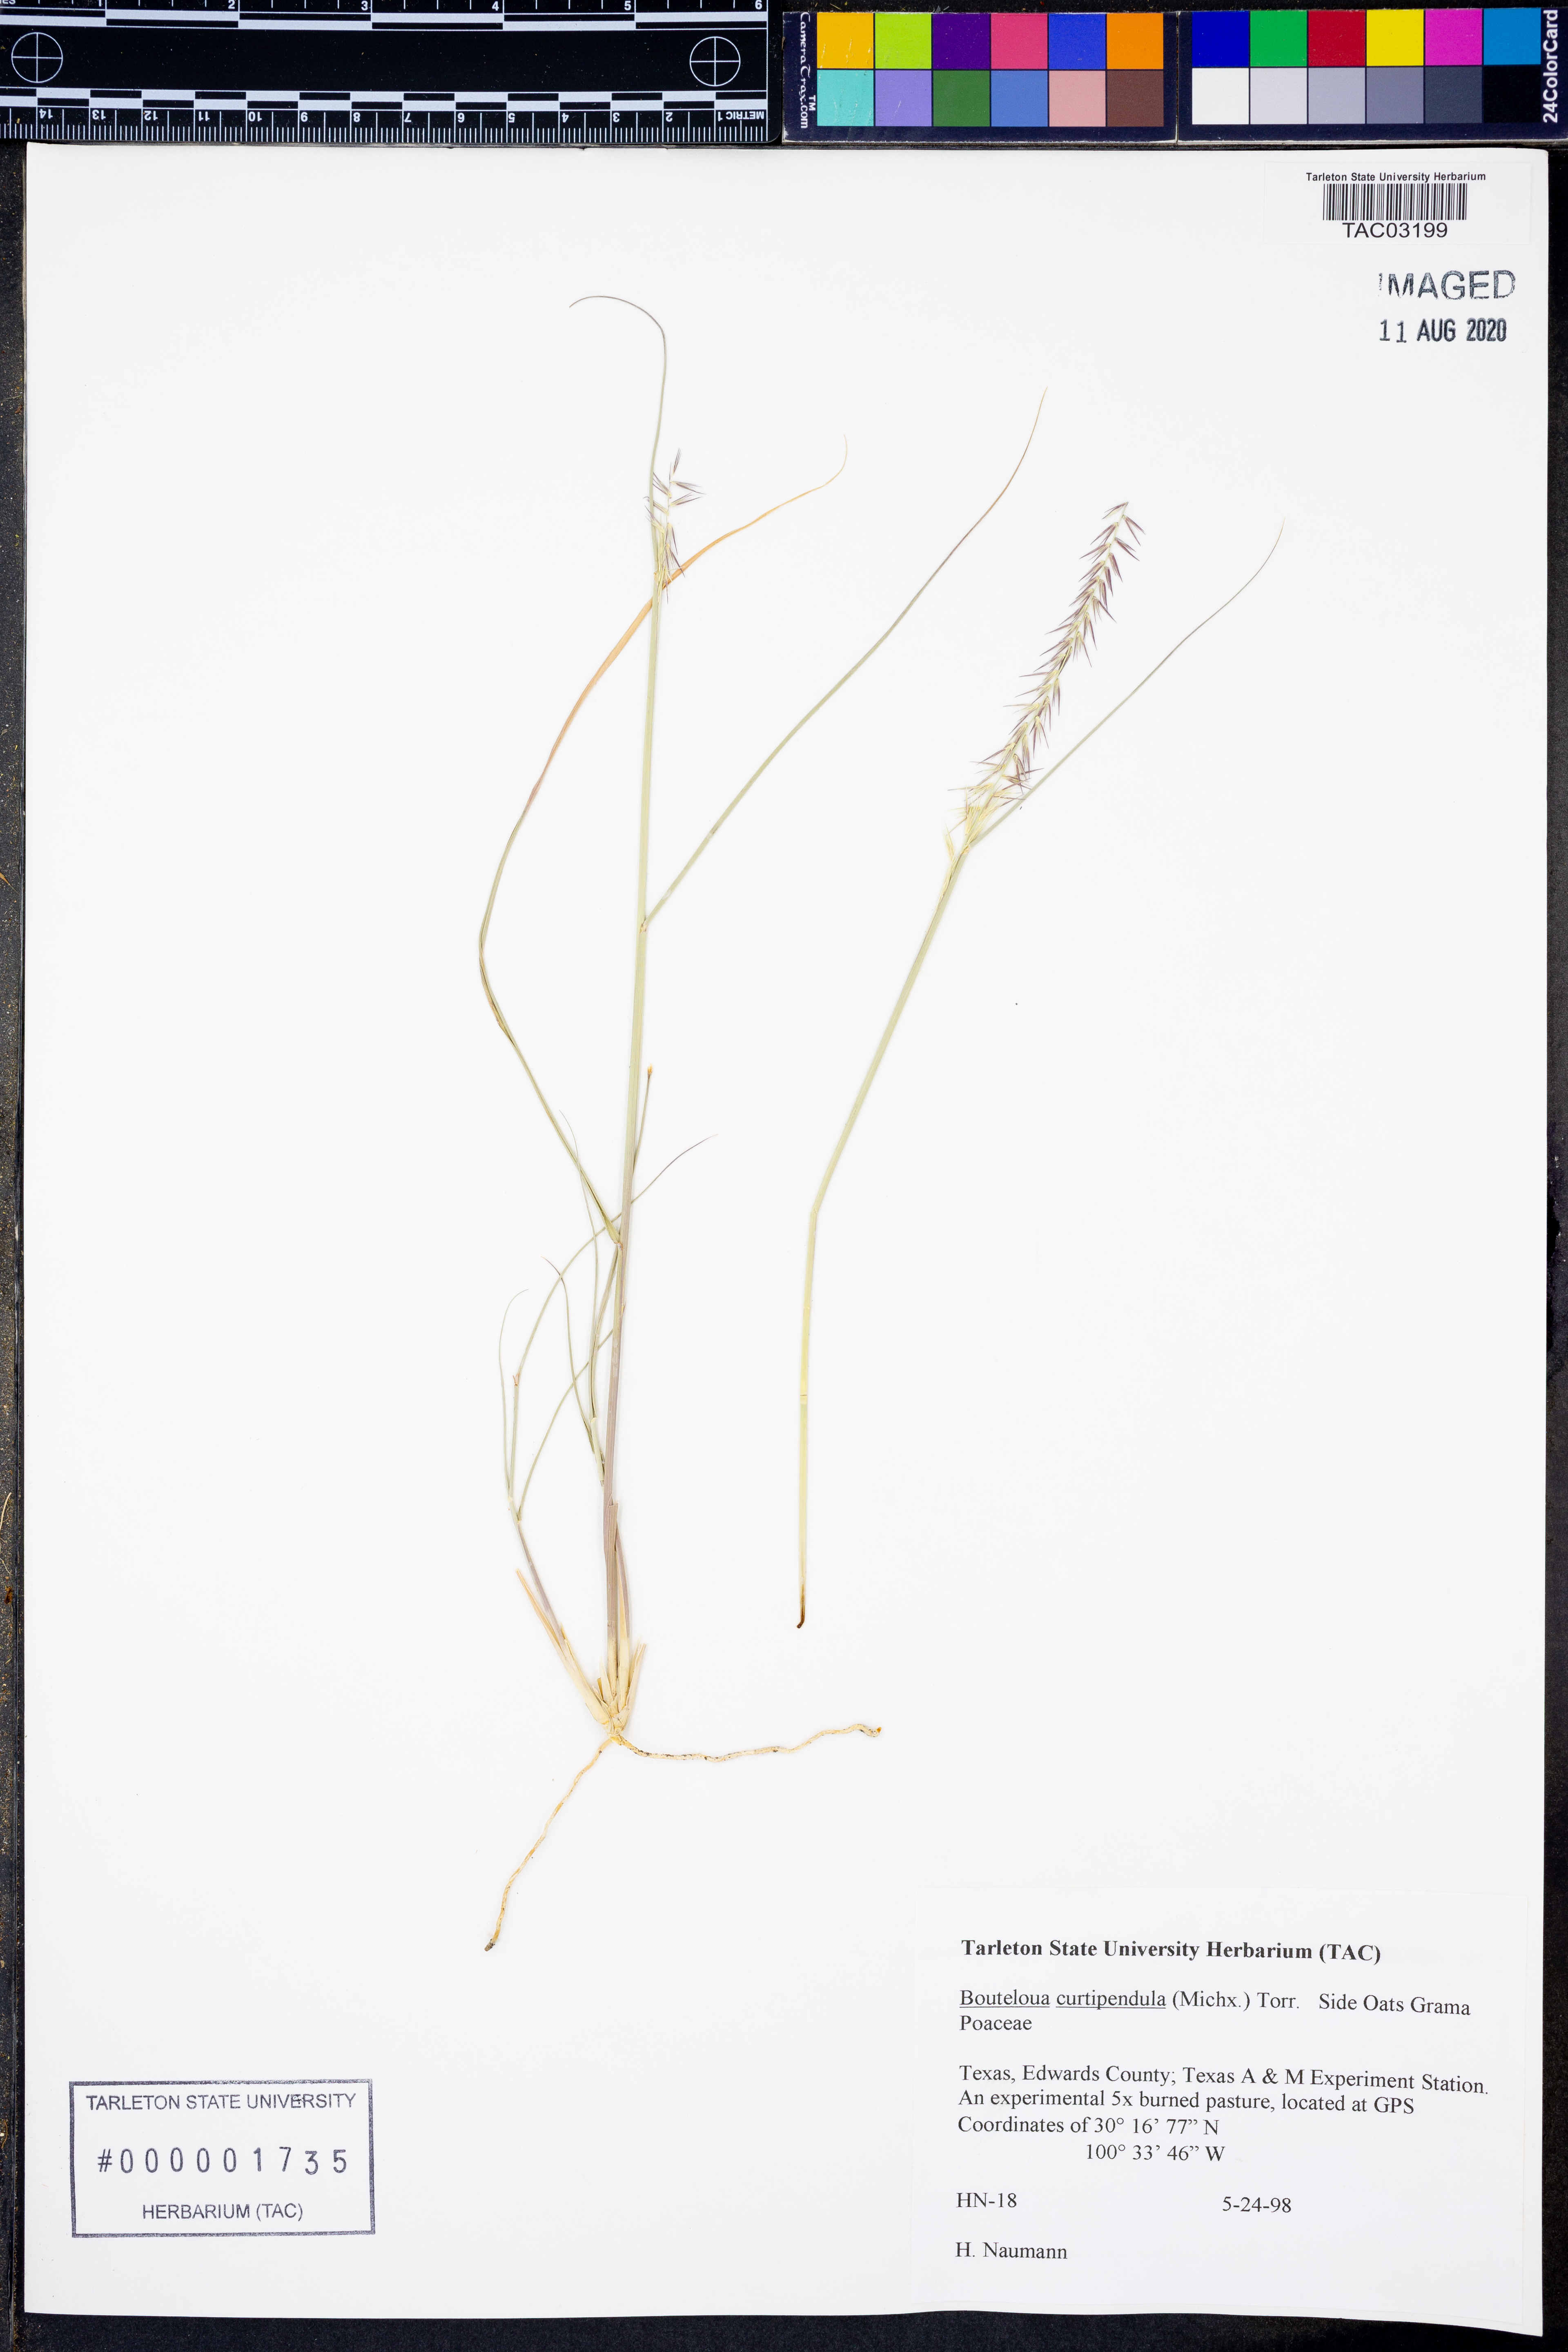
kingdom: Plantae
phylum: Tracheophyta
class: Liliopsida
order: Poales
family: Poaceae
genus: Bouteloua
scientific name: Bouteloua curtipendula
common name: Side-oats grama
